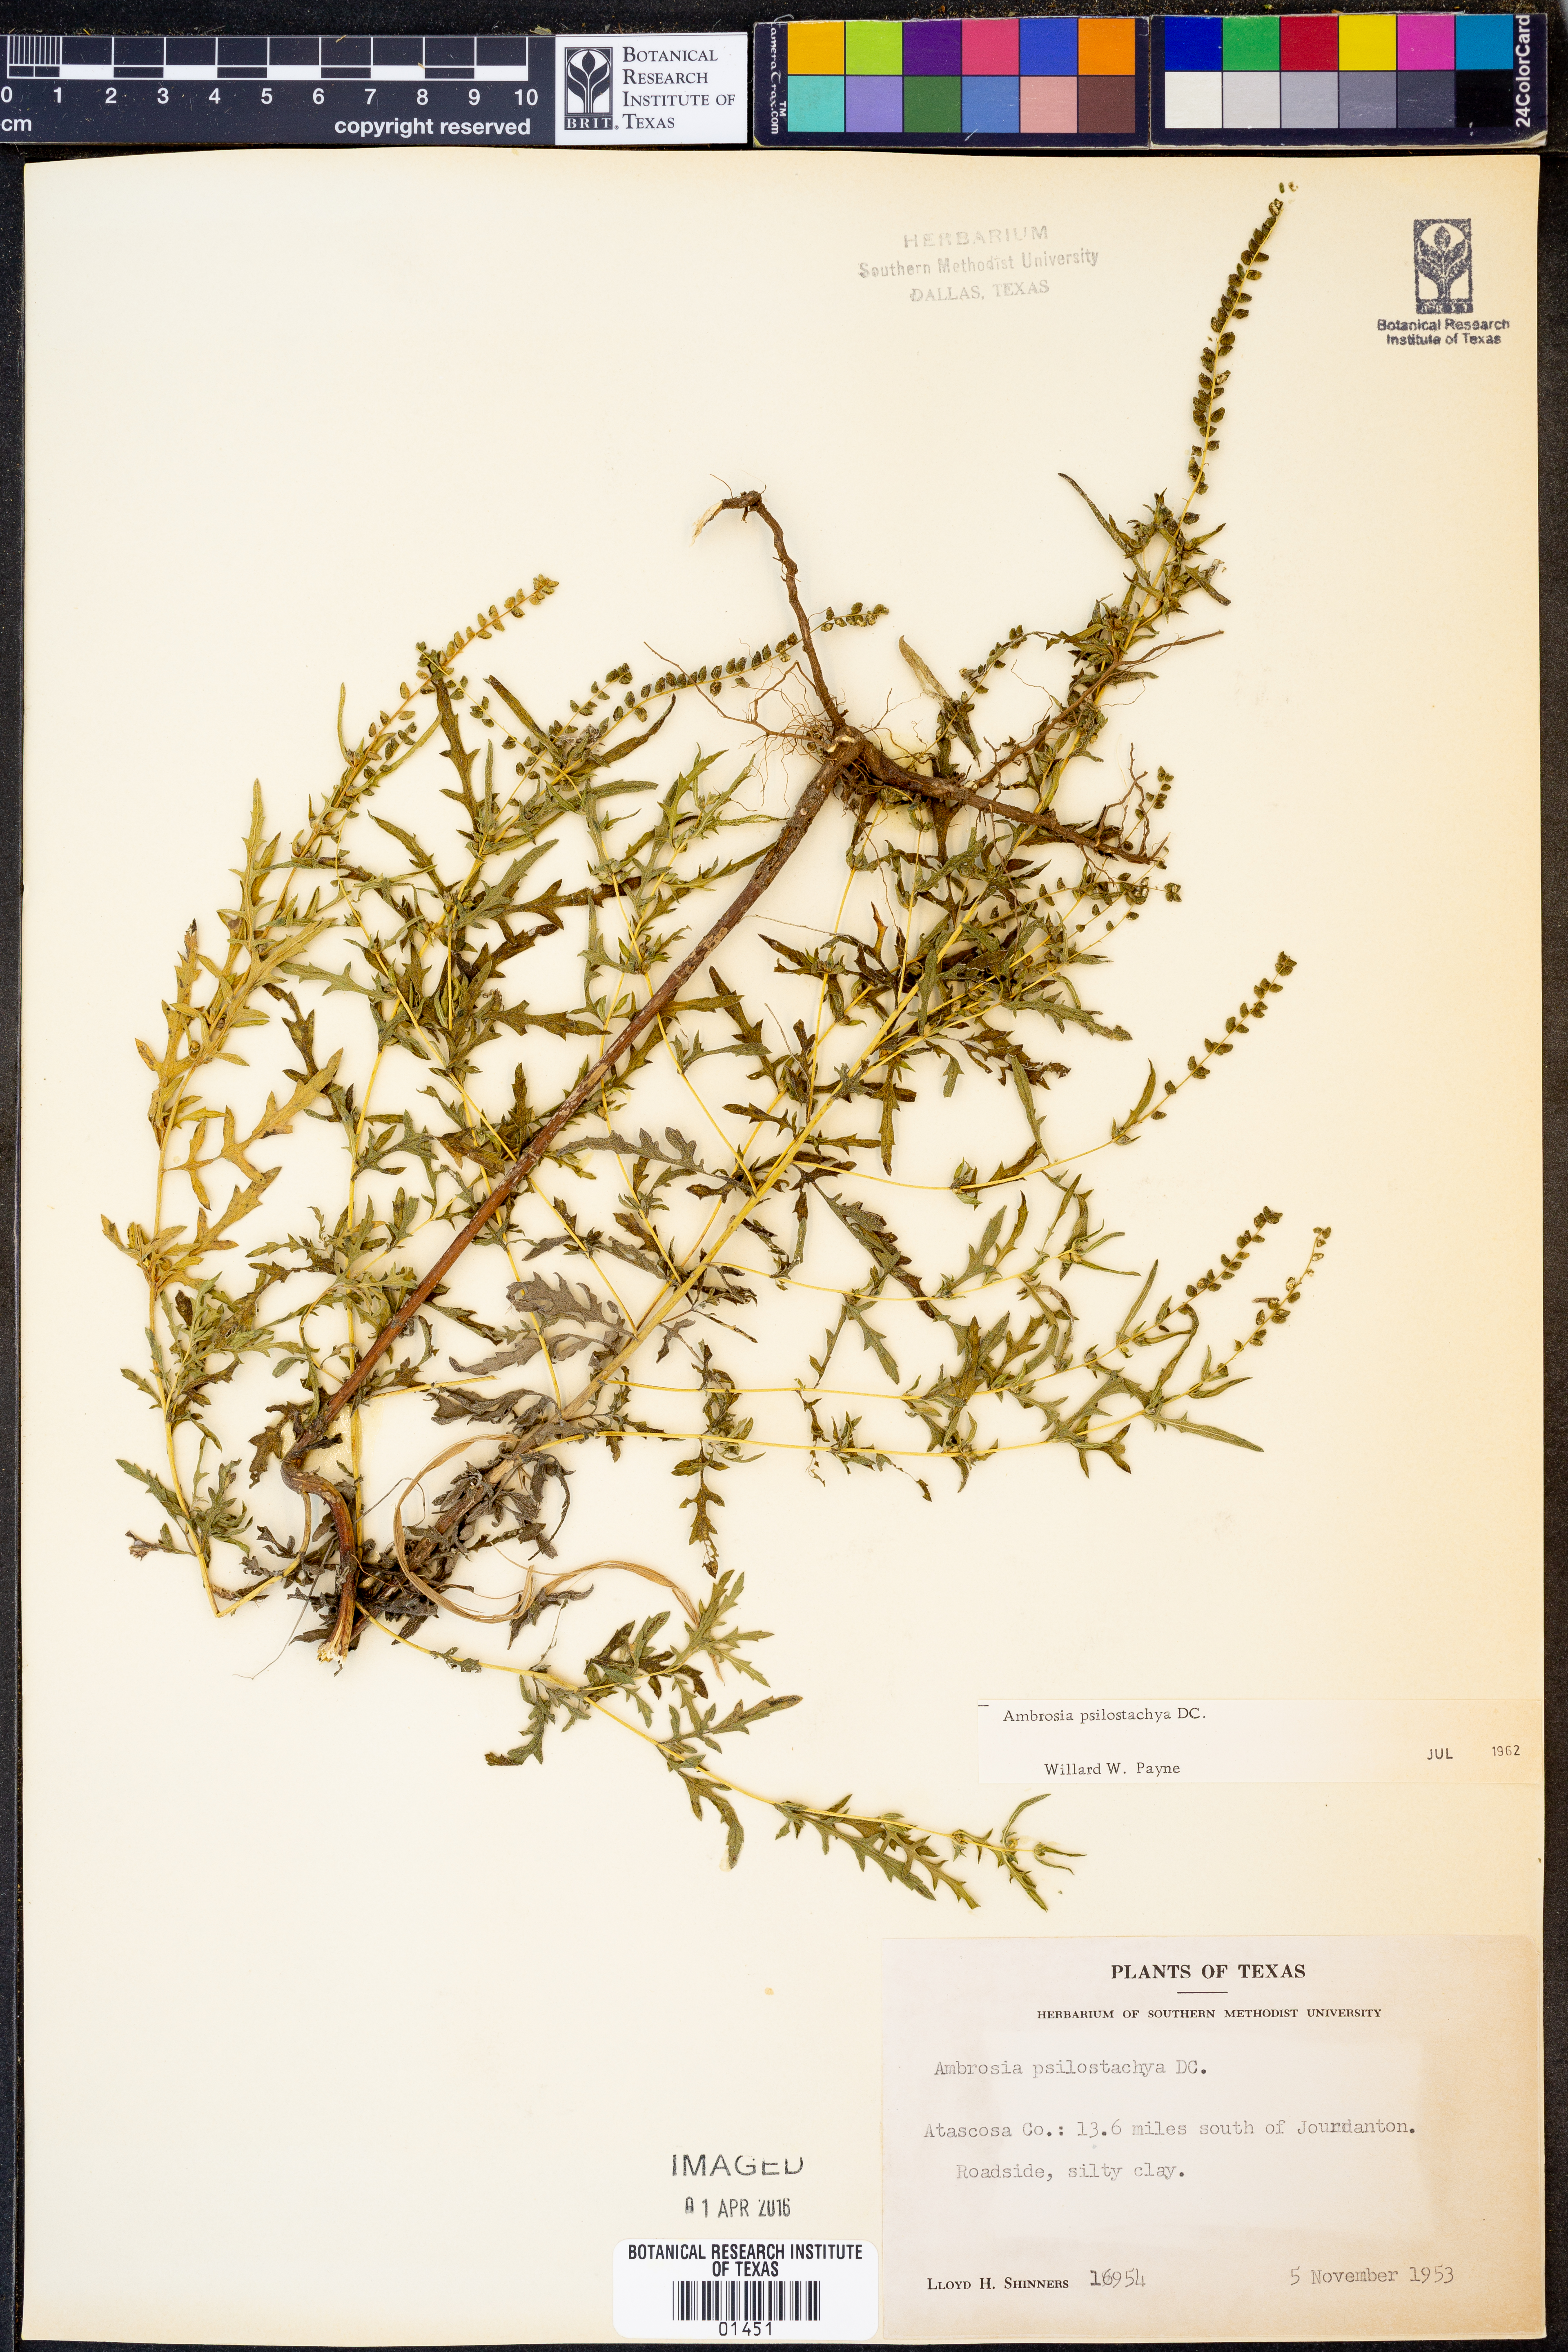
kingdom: Plantae
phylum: Tracheophyta
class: Magnoliopsida
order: Asterales
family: Asteraceae
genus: Ambrosia
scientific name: Ambrosia psilostachya
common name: Perennial ragweed
